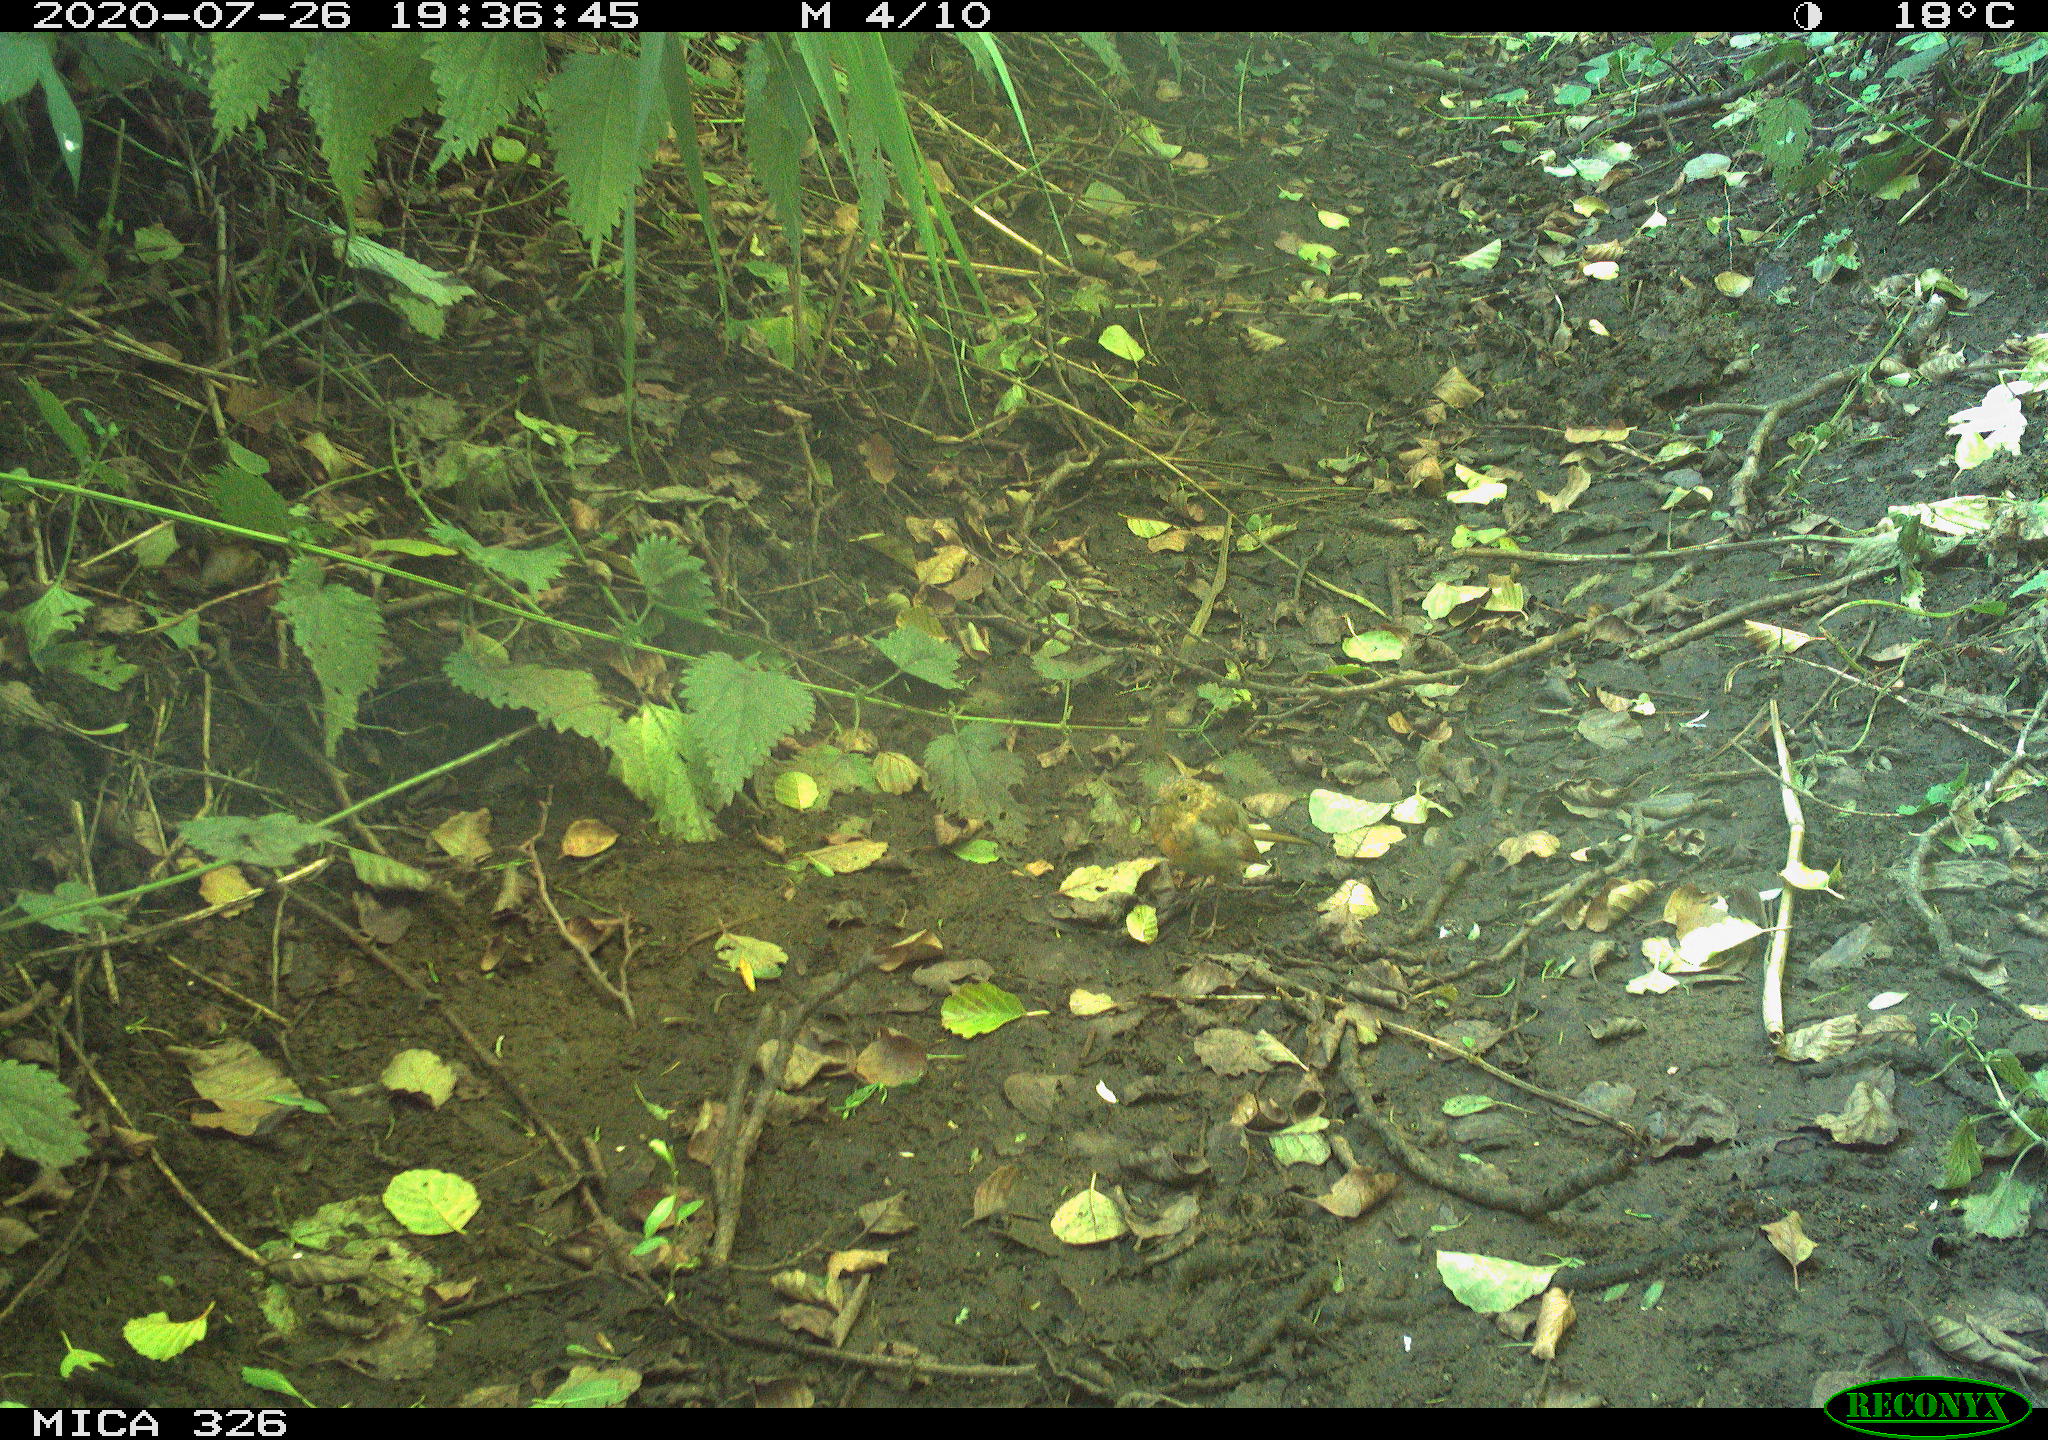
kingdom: Animalia
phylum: Chordata
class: Aves
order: Passeriformes
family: Muscicapidae
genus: Erithacus
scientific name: Erithacus rubecula
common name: European robin
